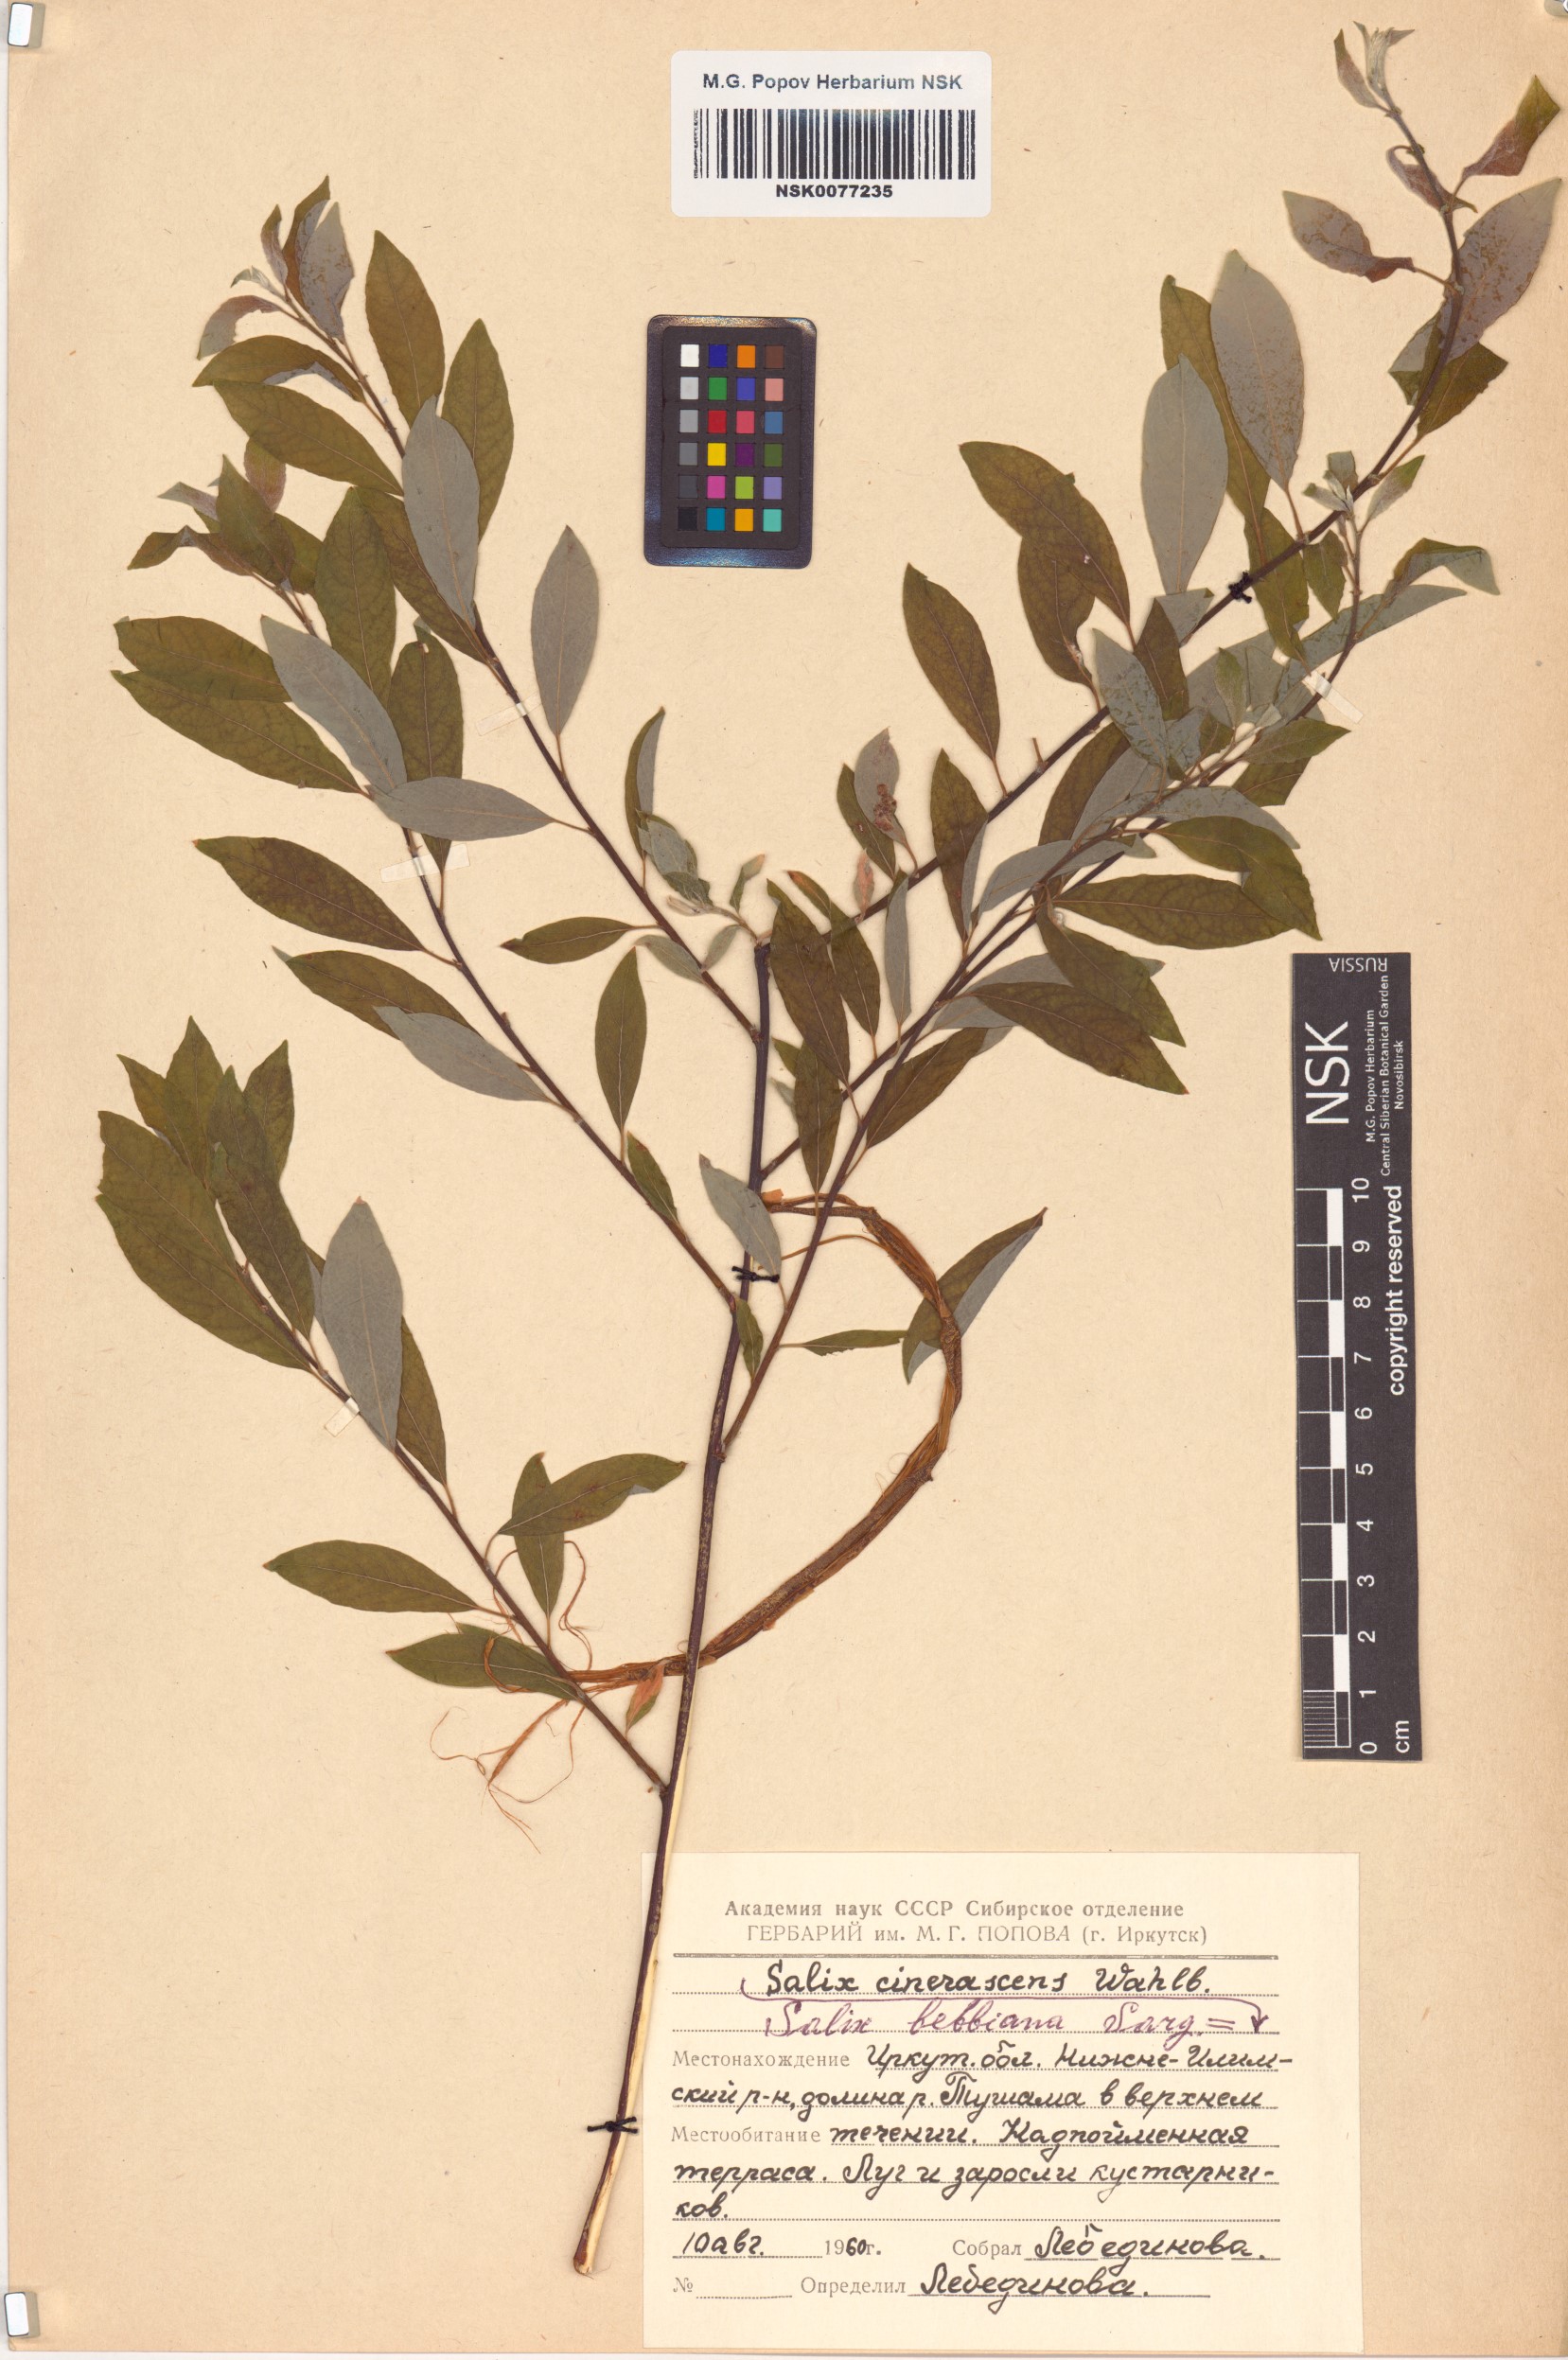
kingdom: Plantae
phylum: Tracheophyta
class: Magnoliopsida
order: Malpighiales
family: Salicaceae
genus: Salix
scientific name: Salix bebbiana
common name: Bebb's willow
